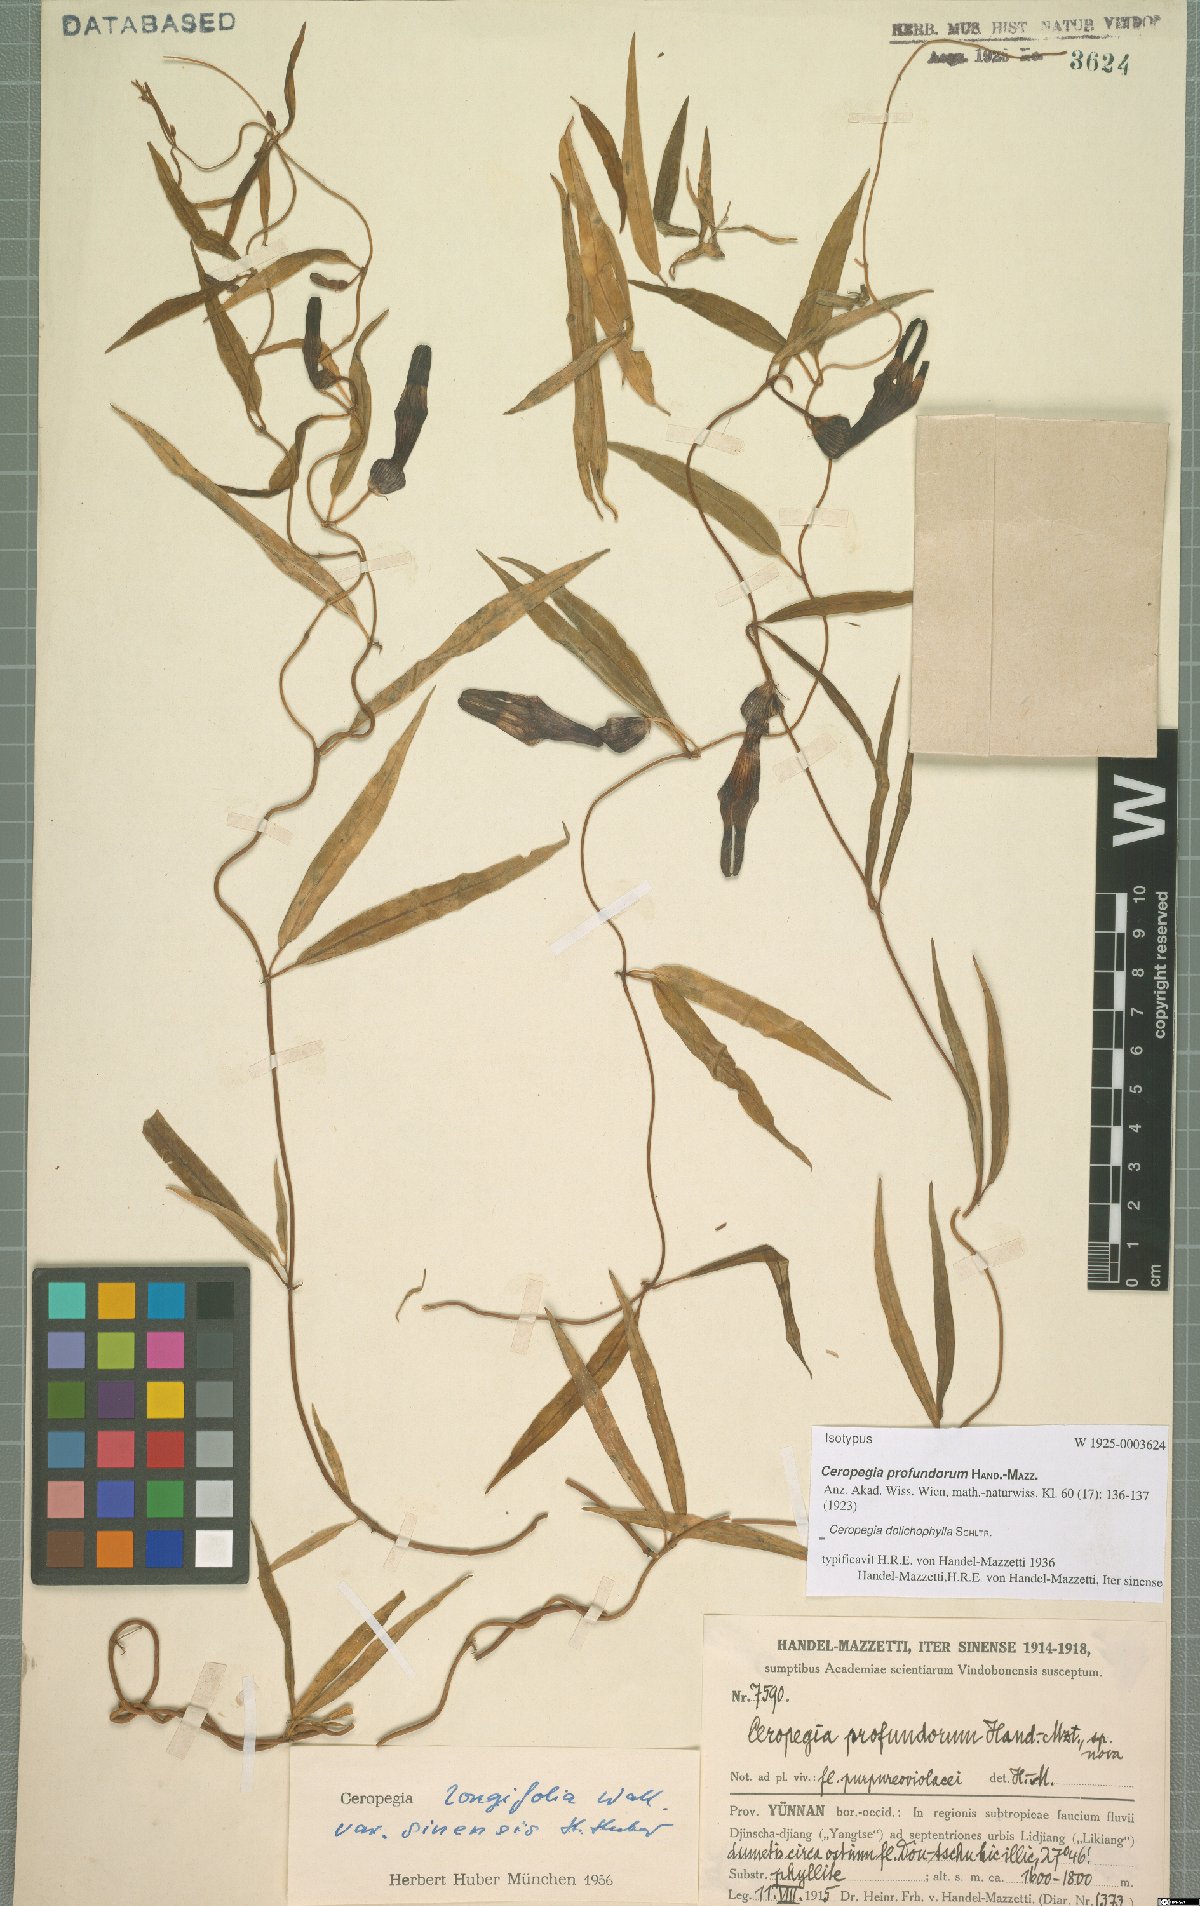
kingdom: Plantae
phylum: Tracheophyta
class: Magnoliopsida
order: Gentianales
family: Apocynaceae
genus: Ceropegia
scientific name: Ceropegia dolichophylla
